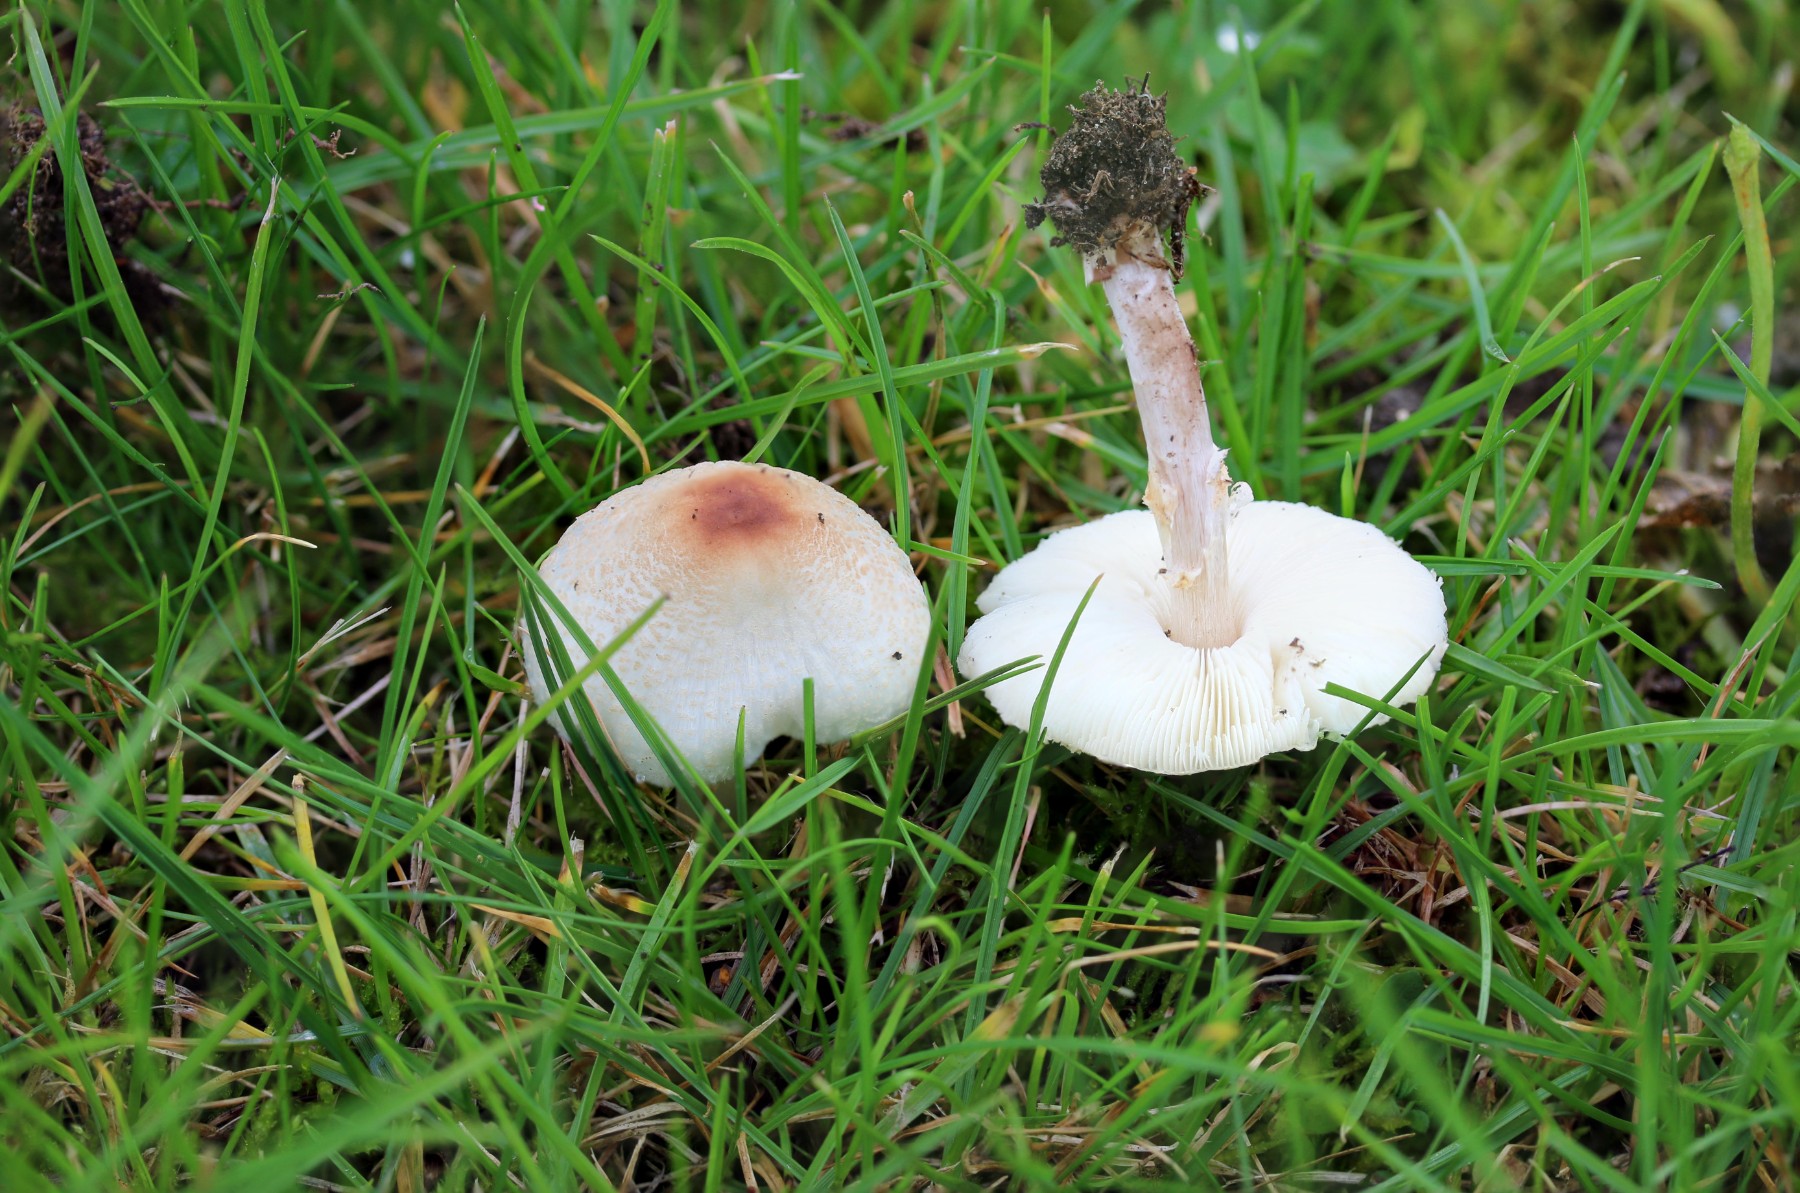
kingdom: Fungi
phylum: Basidiomycota
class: Agaricomycetes
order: Agaricales
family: Agaricaceae
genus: Lepiota
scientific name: Lepiota cristata
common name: stinkende parasolhat
